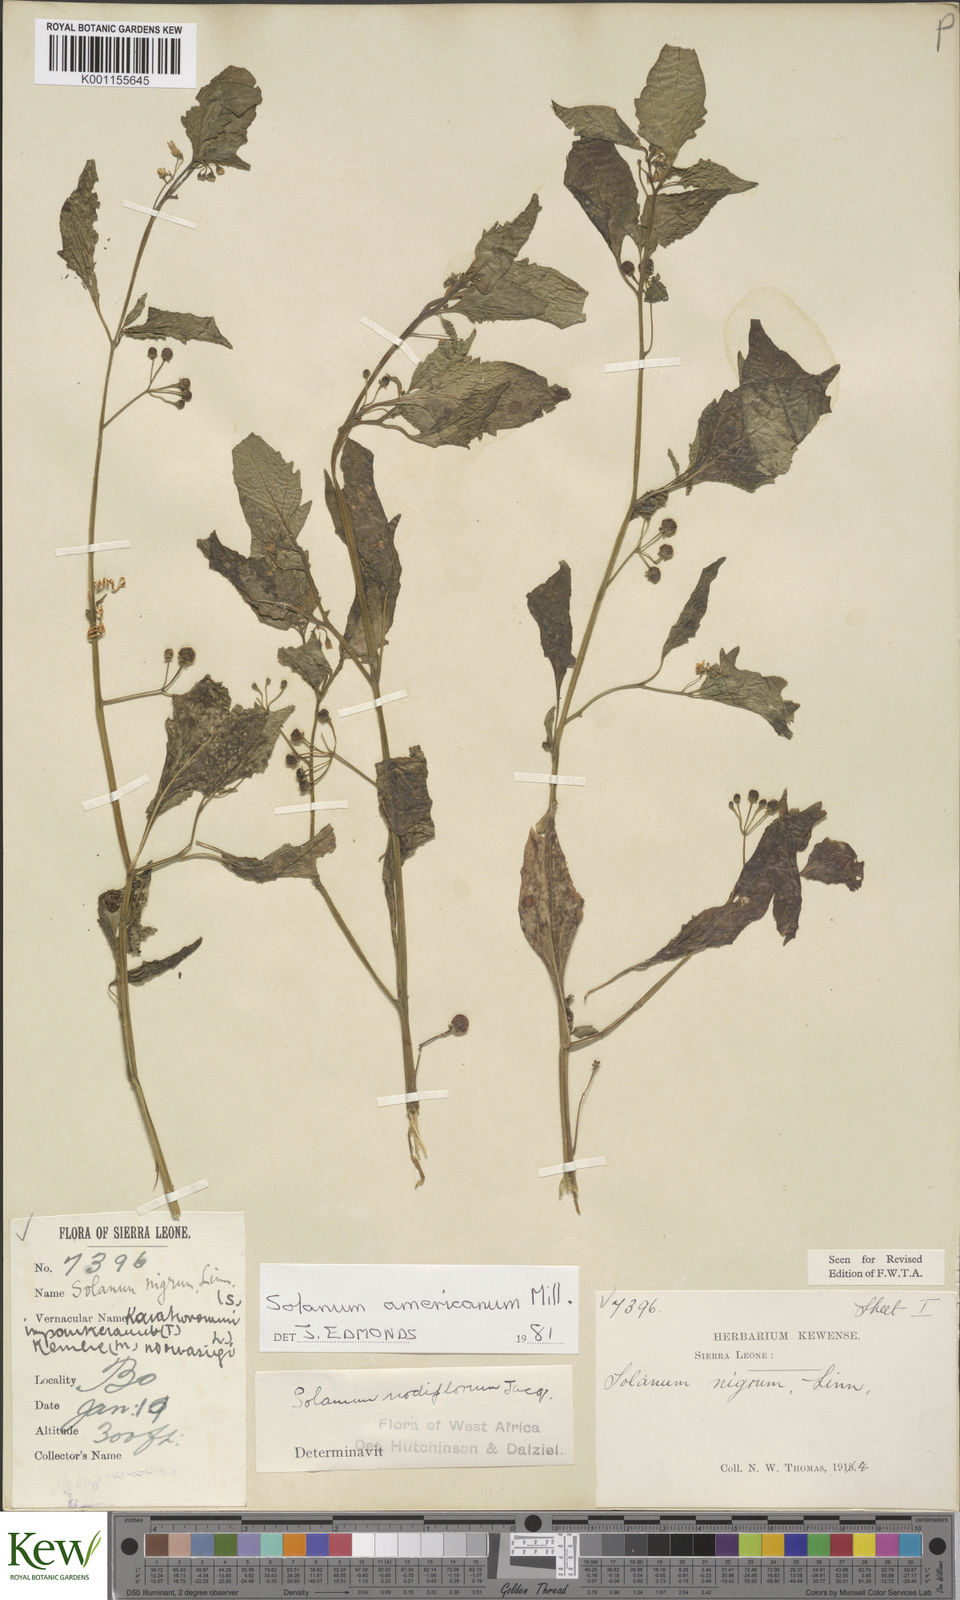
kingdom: Plantae
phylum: Tracheophyta
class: Magnoliopsida
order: Solanales
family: Solanaceae
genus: Solanum
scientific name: Solanum americanum
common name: American black nightshade
